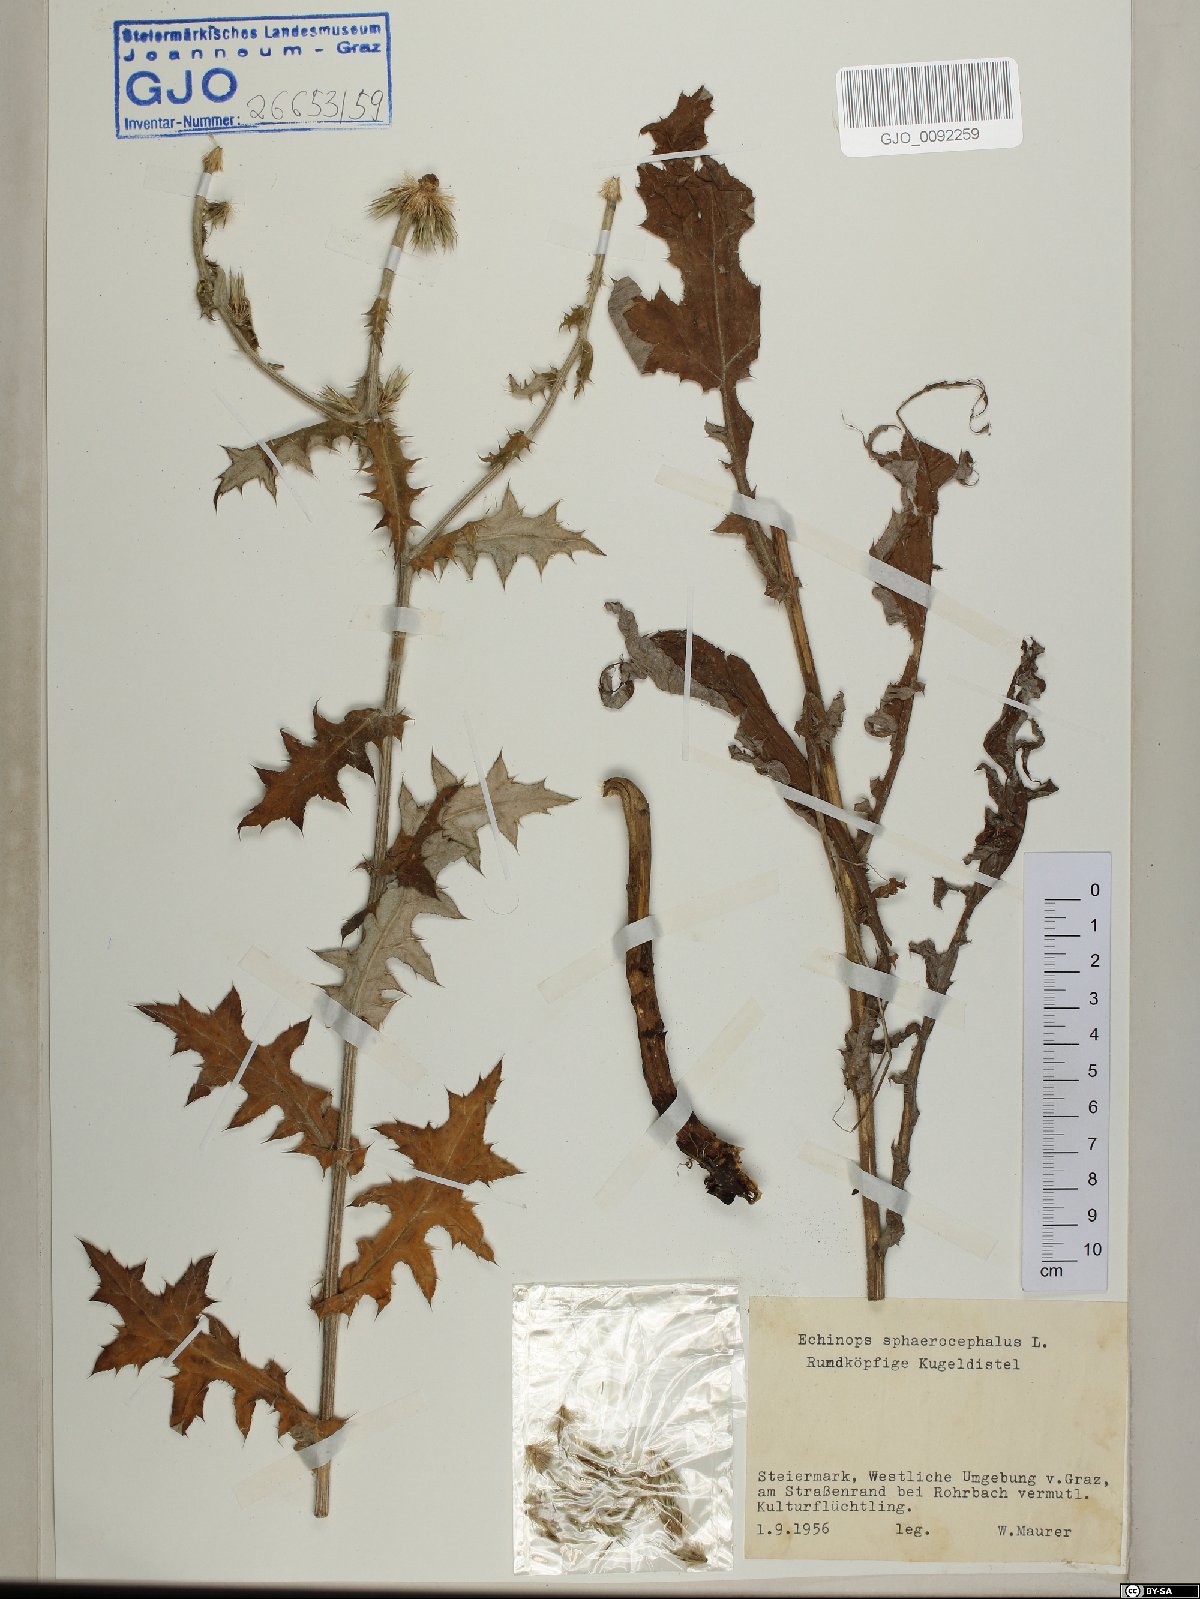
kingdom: Plantae
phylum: Tracheophyta
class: Magnoliopsida
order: Asterales
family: Asteraceae
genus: Echinops
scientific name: Echinops sphaerocephalus
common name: Glandular globe-thistle
